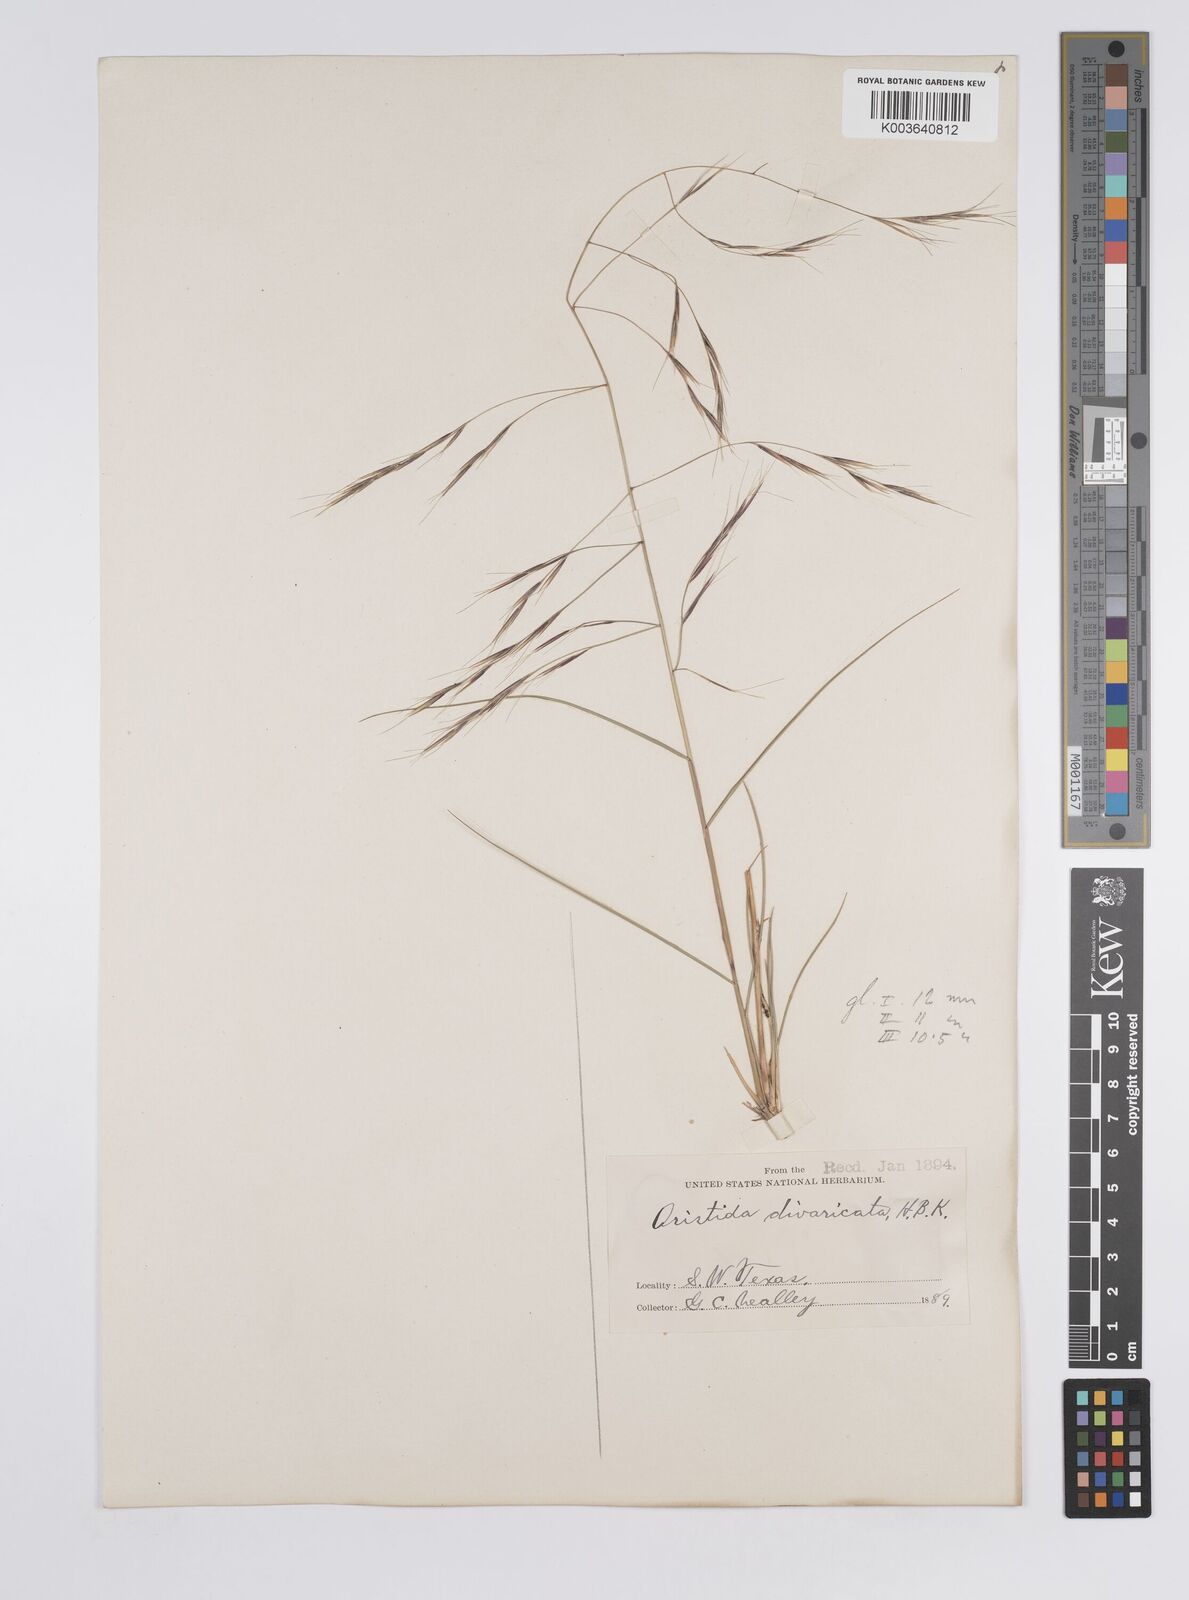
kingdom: Plantae
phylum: Tracheophyta
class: Liliopsida
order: Poales
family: Poaceae
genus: Aristida
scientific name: Aristida hamulosa
